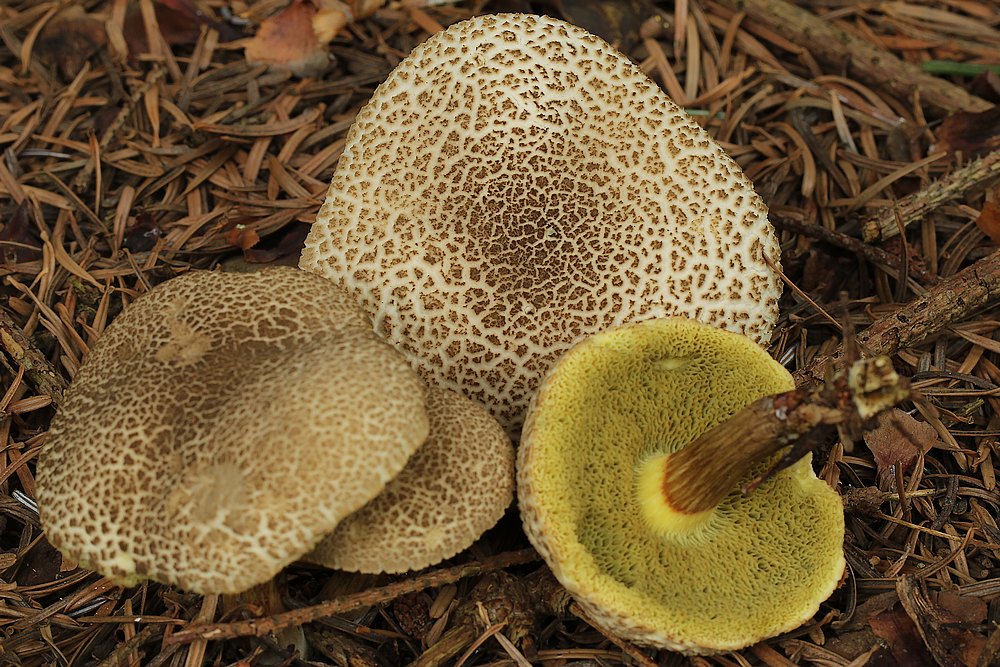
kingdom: Fungi
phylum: Basidiomycota
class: Agaricomycetes
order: Boletales
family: Boletaceae
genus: Xerocomellus
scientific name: Xerocomellus porosporus
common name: hvidsprukken rørhat
